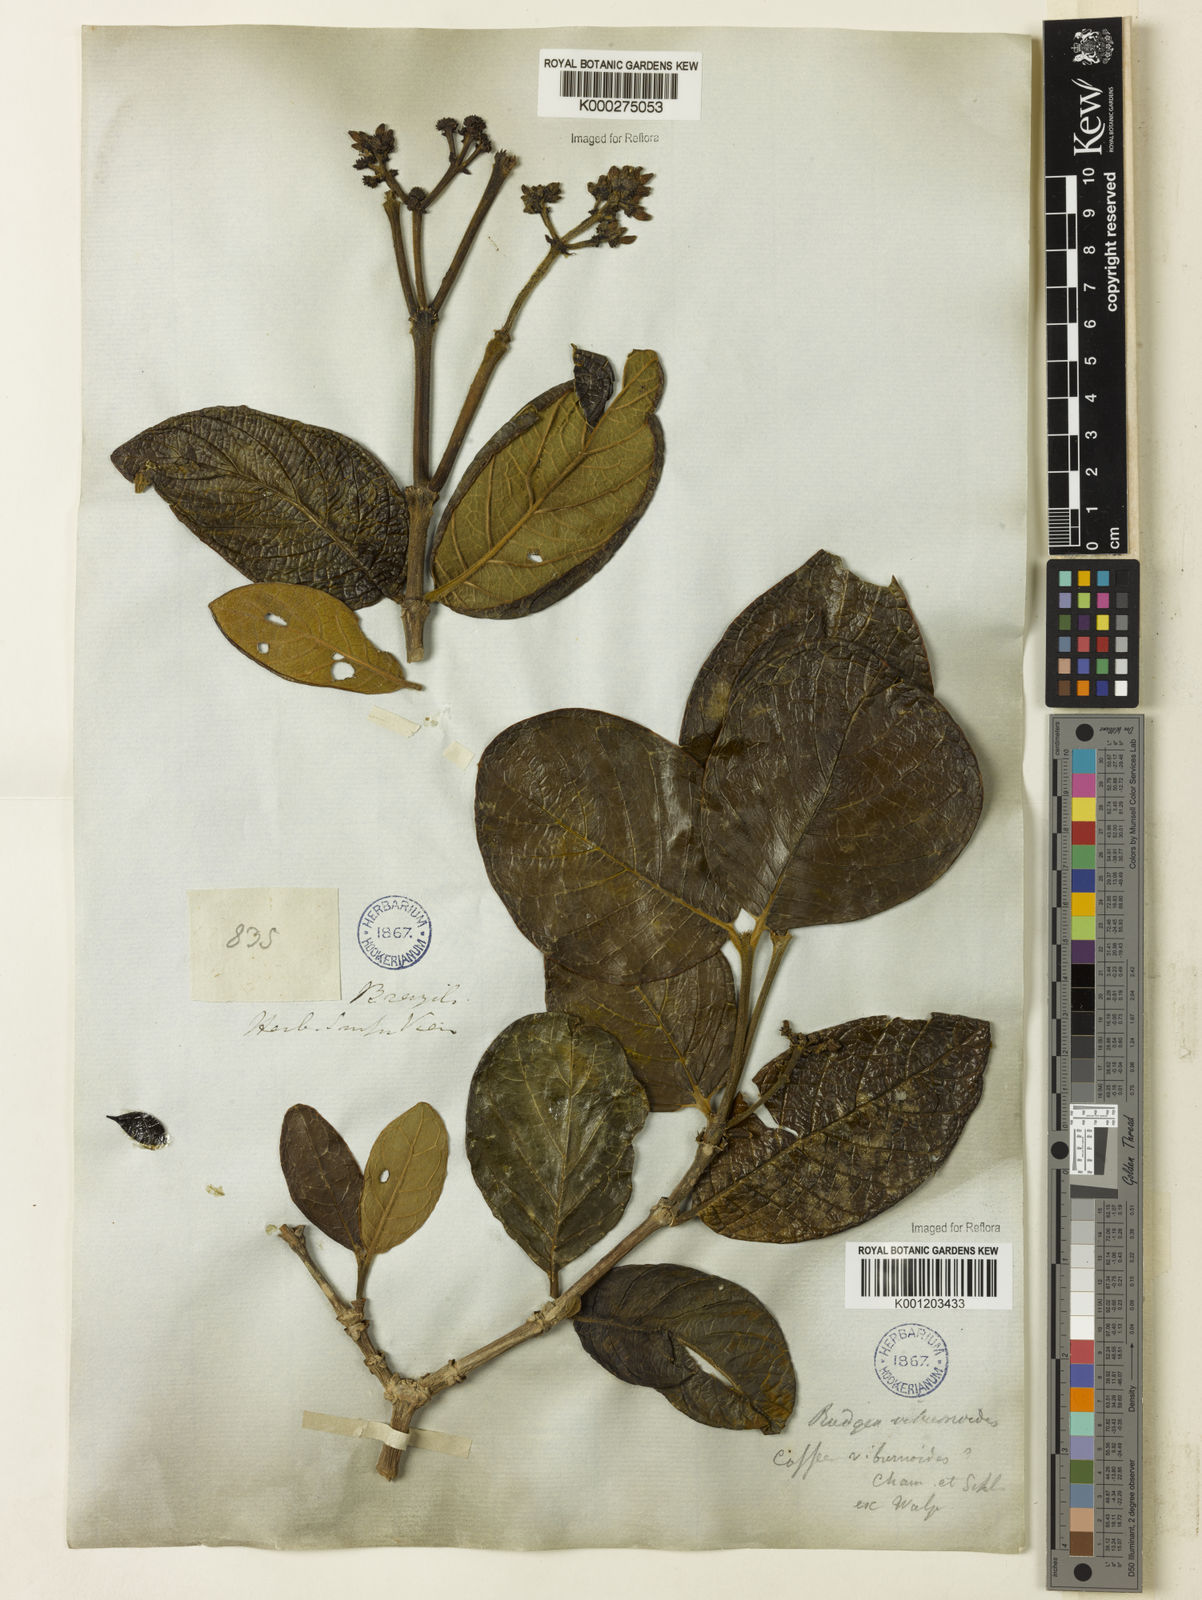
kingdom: Plantae
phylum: Tracheophyta
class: Magnoliopsida
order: Gentianales
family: Rubiaceae
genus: Rudgea
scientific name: Rudgea viburnoides
